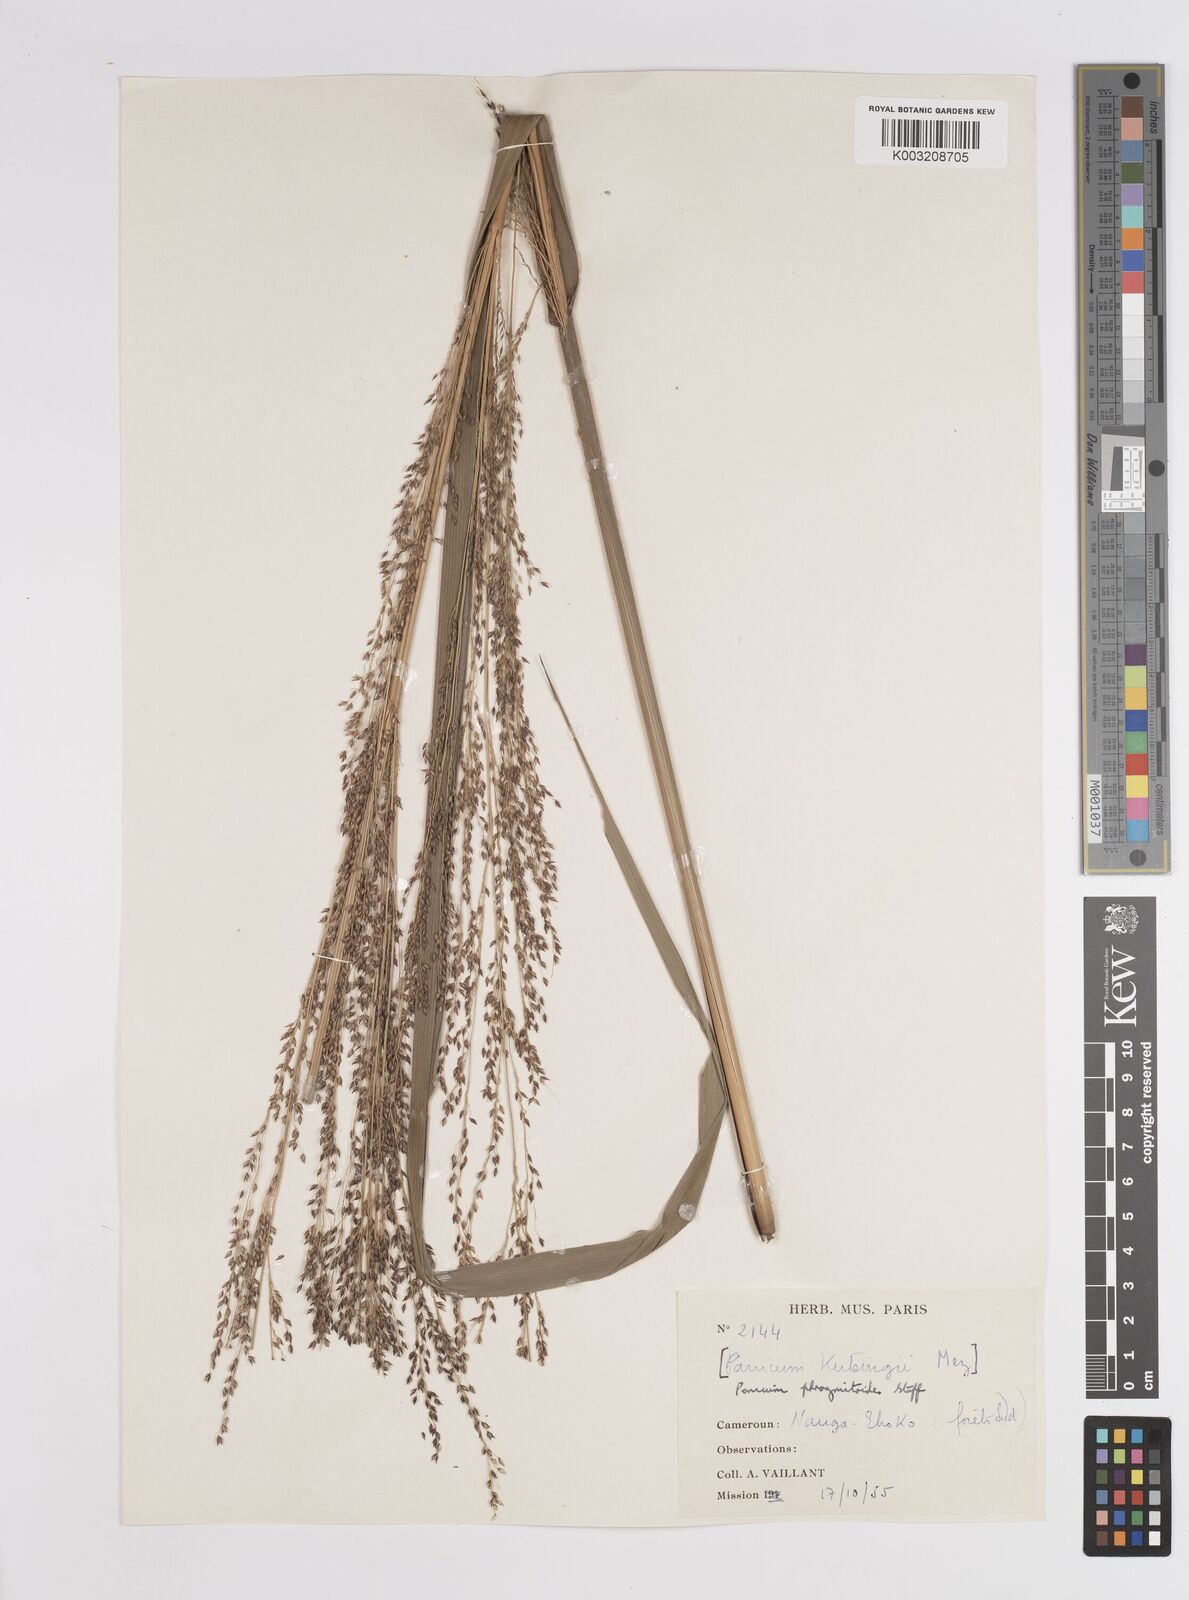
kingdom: Plantae
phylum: Tracheophyta
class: Liliopsida
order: Poales
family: Poaceae
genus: Panicum
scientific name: Panicum phragmitoides
